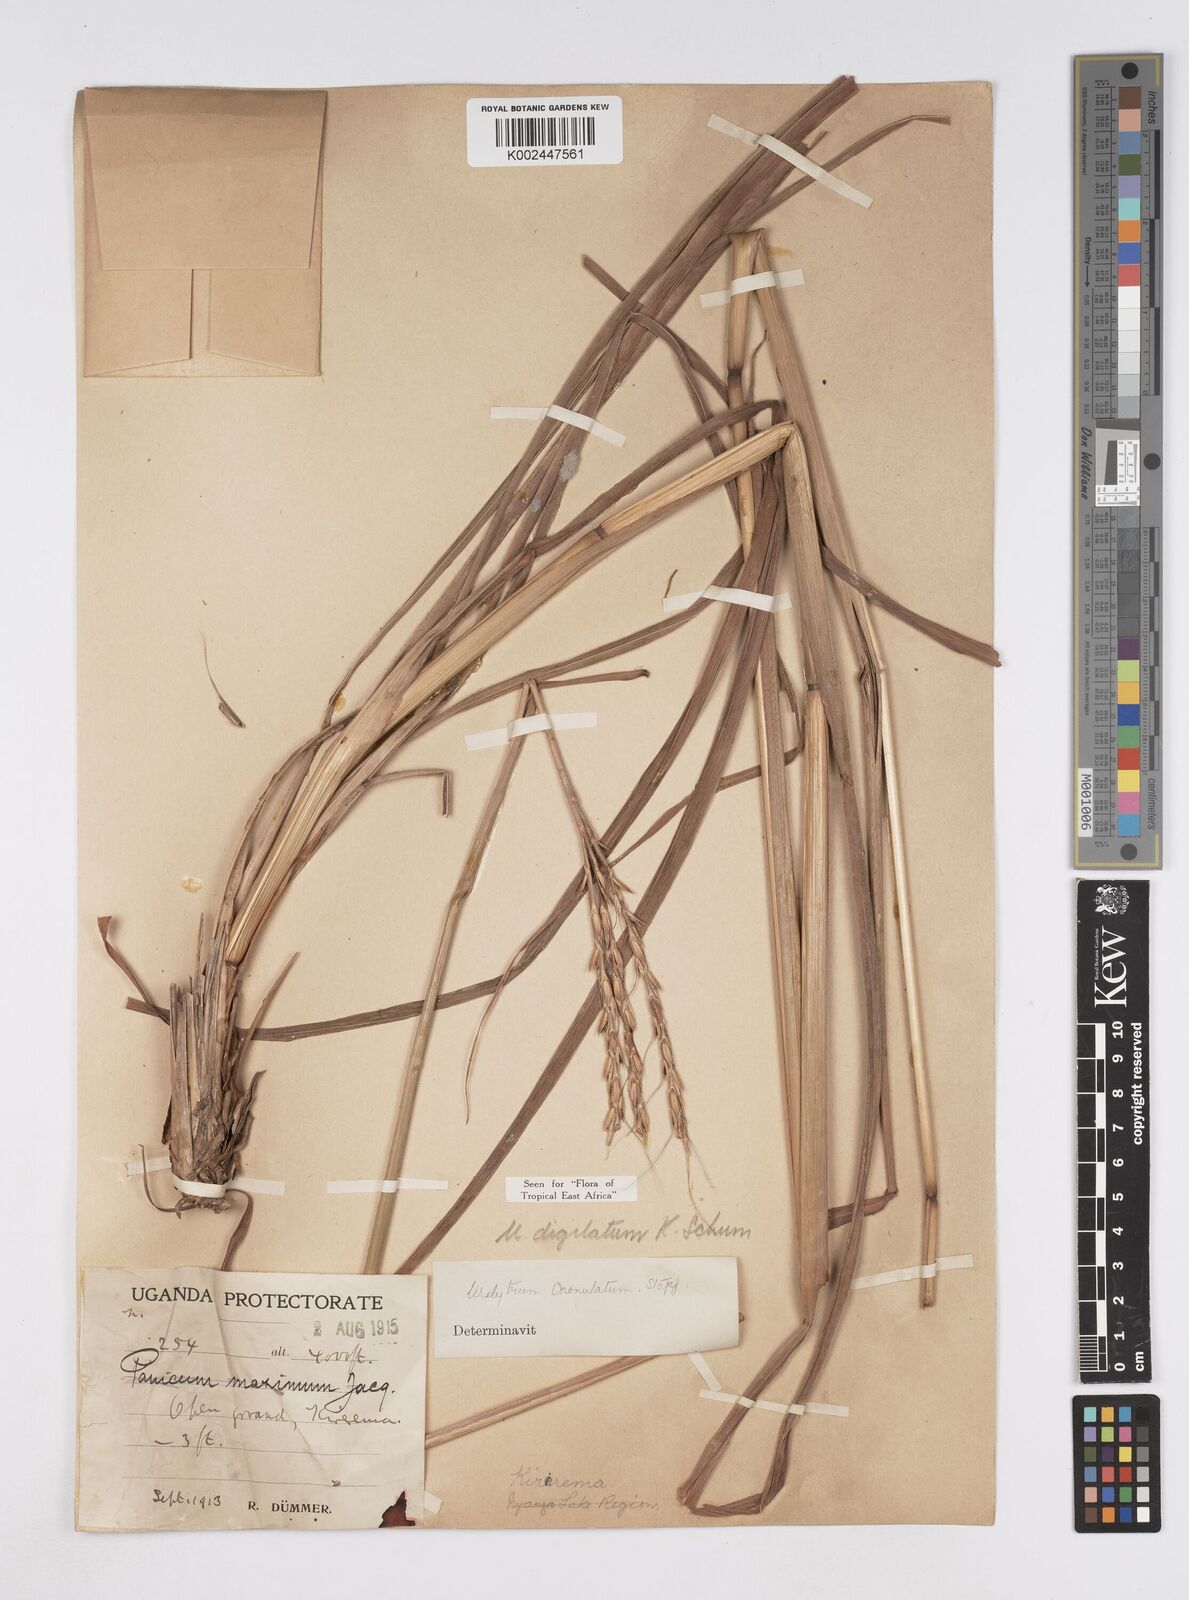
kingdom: Plantae
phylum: Tracheophyta
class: Liliopsida
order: Poales
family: Poaceae
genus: Urelytrum
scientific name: Urelytrum digitatum
